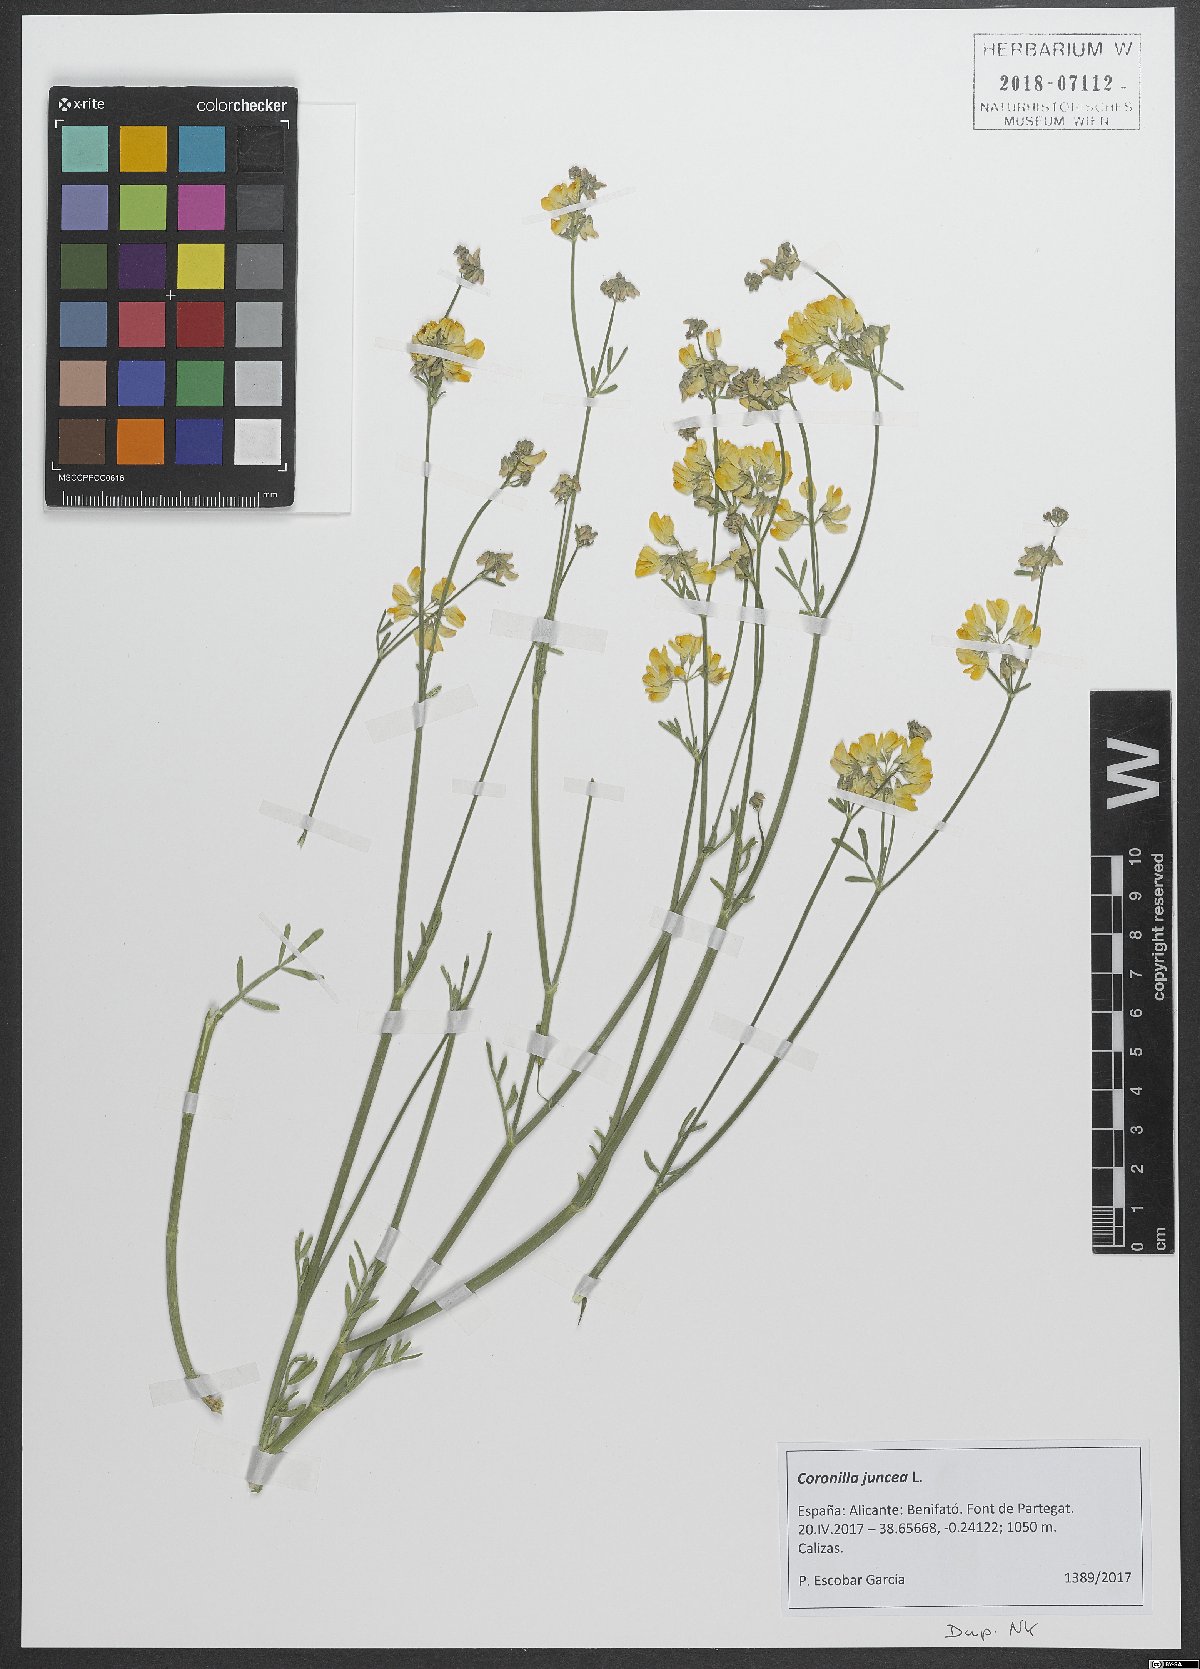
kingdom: Plantae
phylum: Tracheophyta
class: Magnoliopsida
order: Fabales
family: Fabaceae
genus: Coronilla
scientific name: Coronilla juncea
